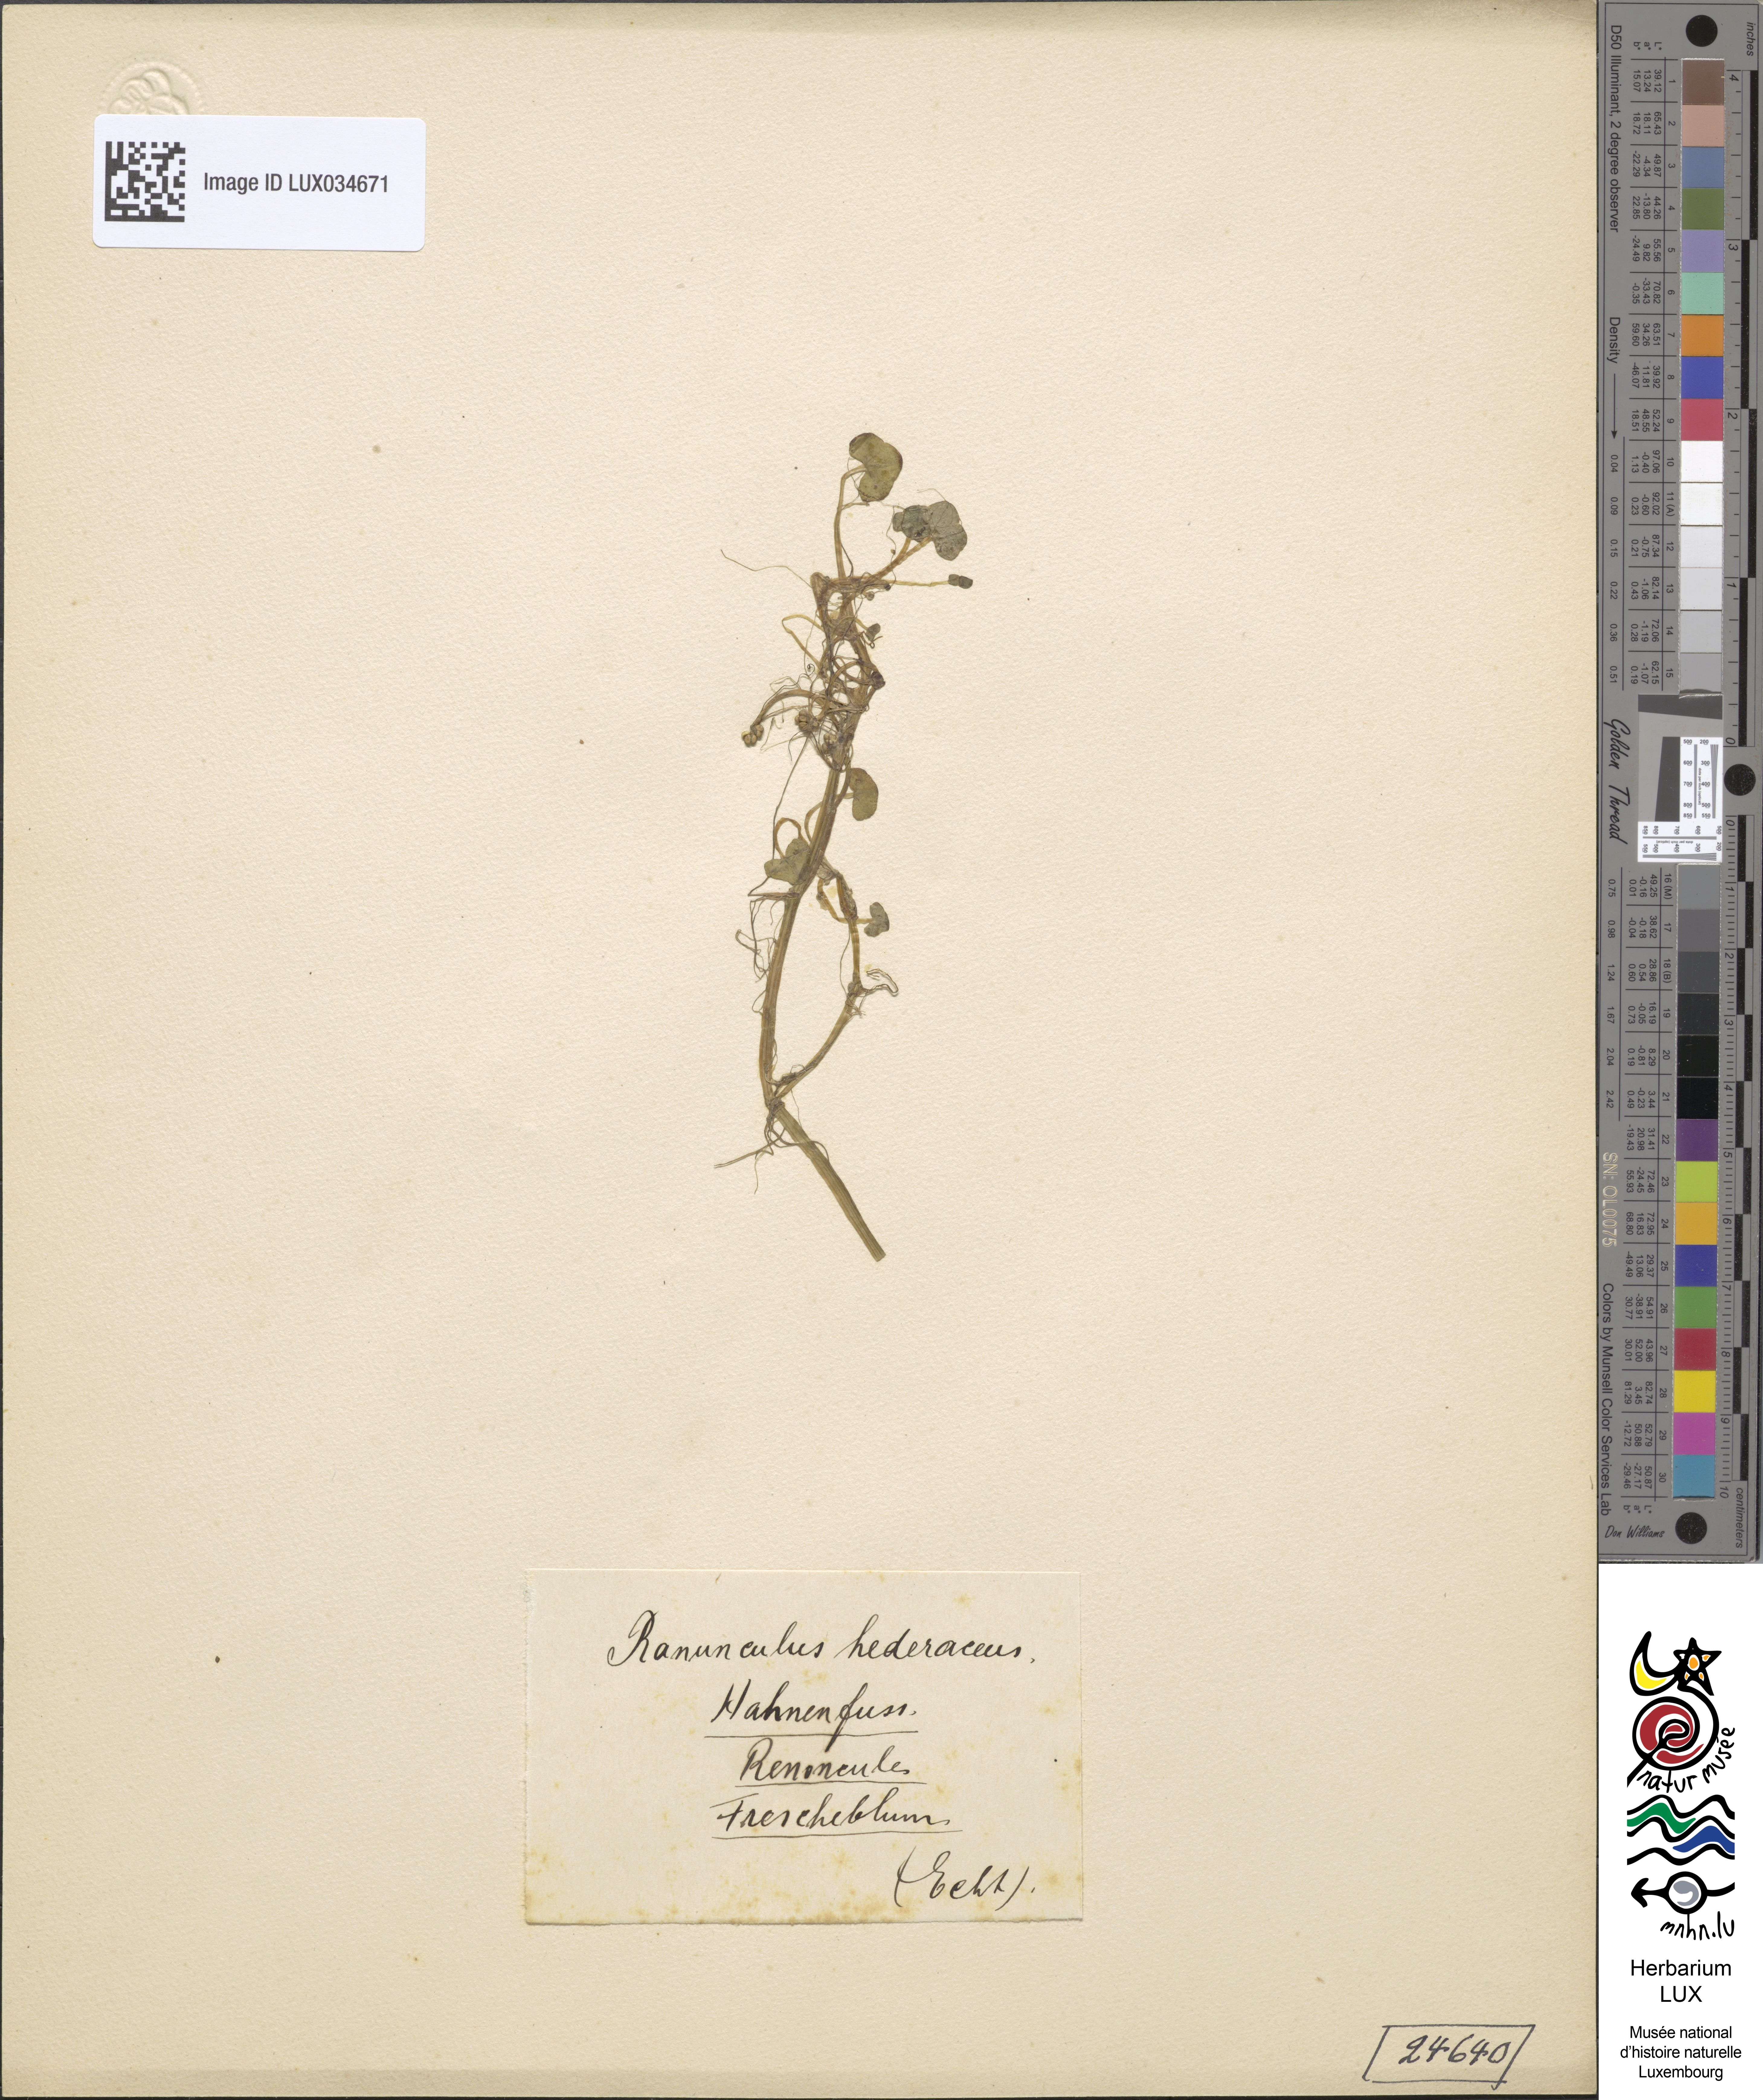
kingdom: Plantae
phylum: Tracheophyta
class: Magnoliopsida
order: Ranunculales
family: Ranunculaceae
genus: Ranunculus
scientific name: Ranunculus hederaceus
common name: Ivy-leaved crowfoot
